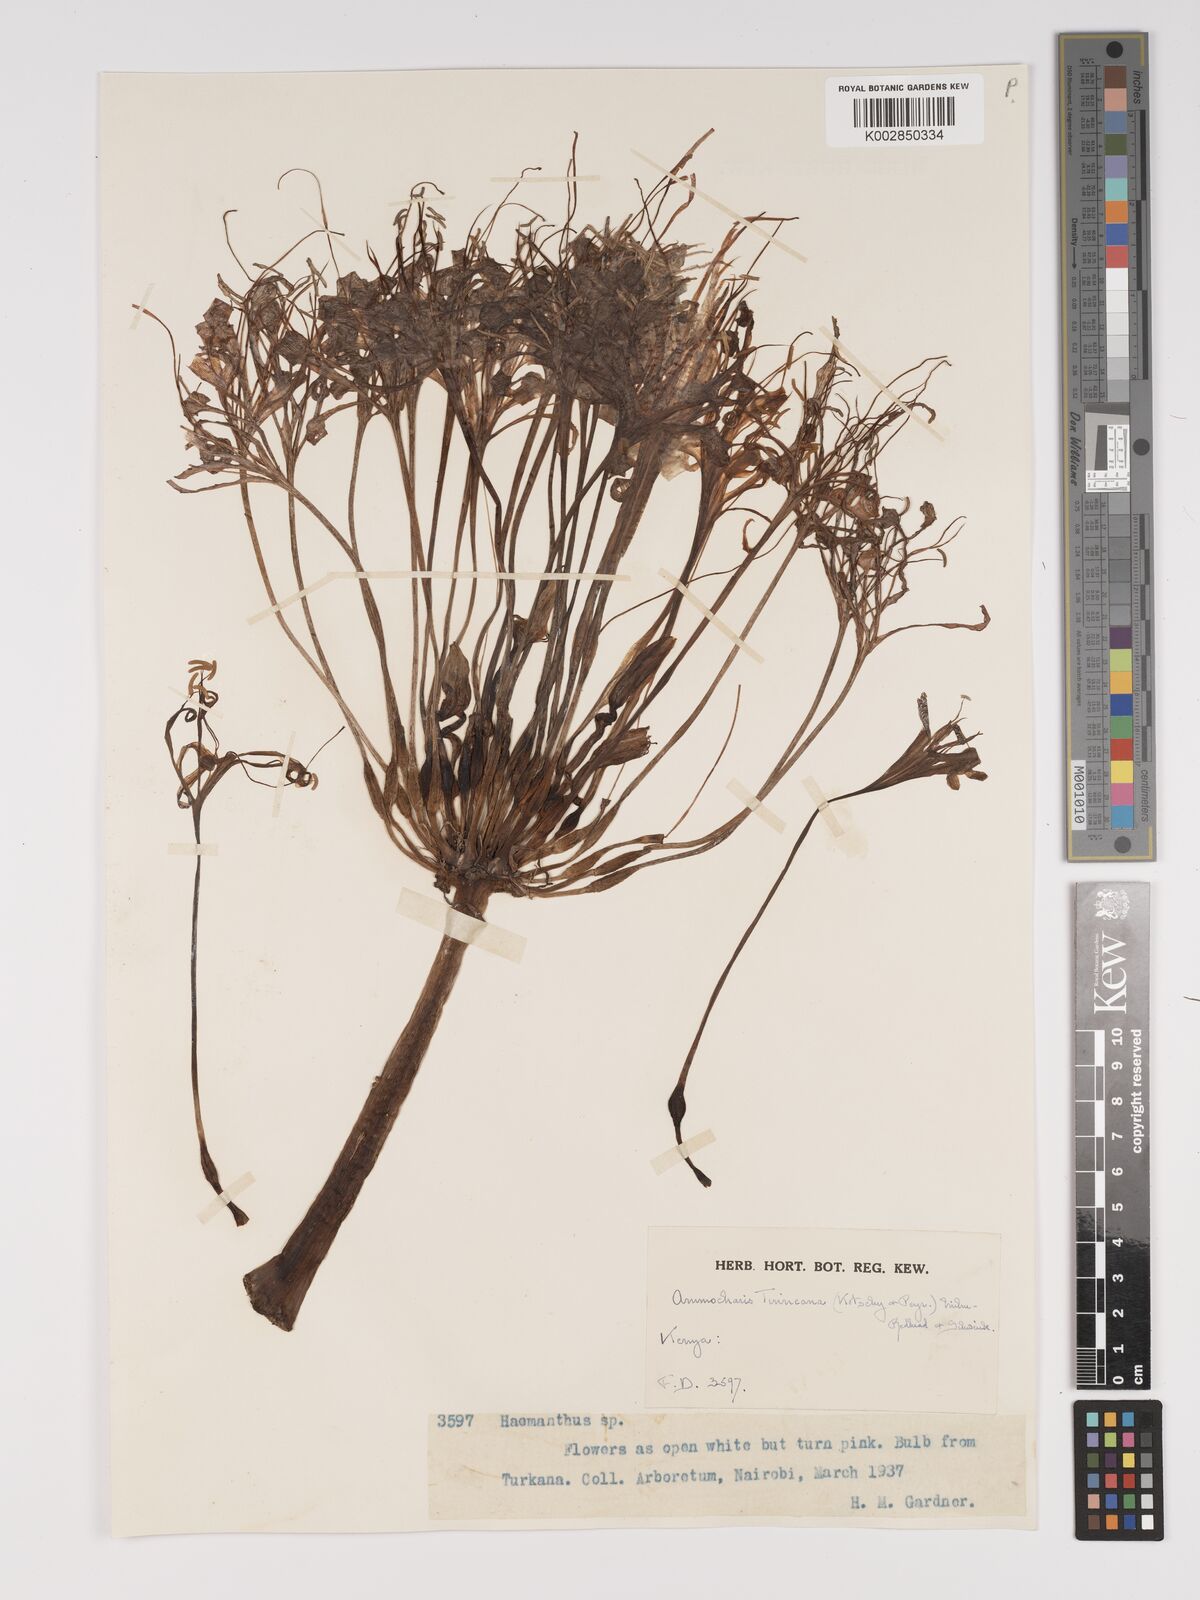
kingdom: Plantae
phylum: Tracheophyta
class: Liliopsida
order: Asparagales
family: Amaryllidaceae
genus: Ammocharis
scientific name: Ammocharis tinneana
